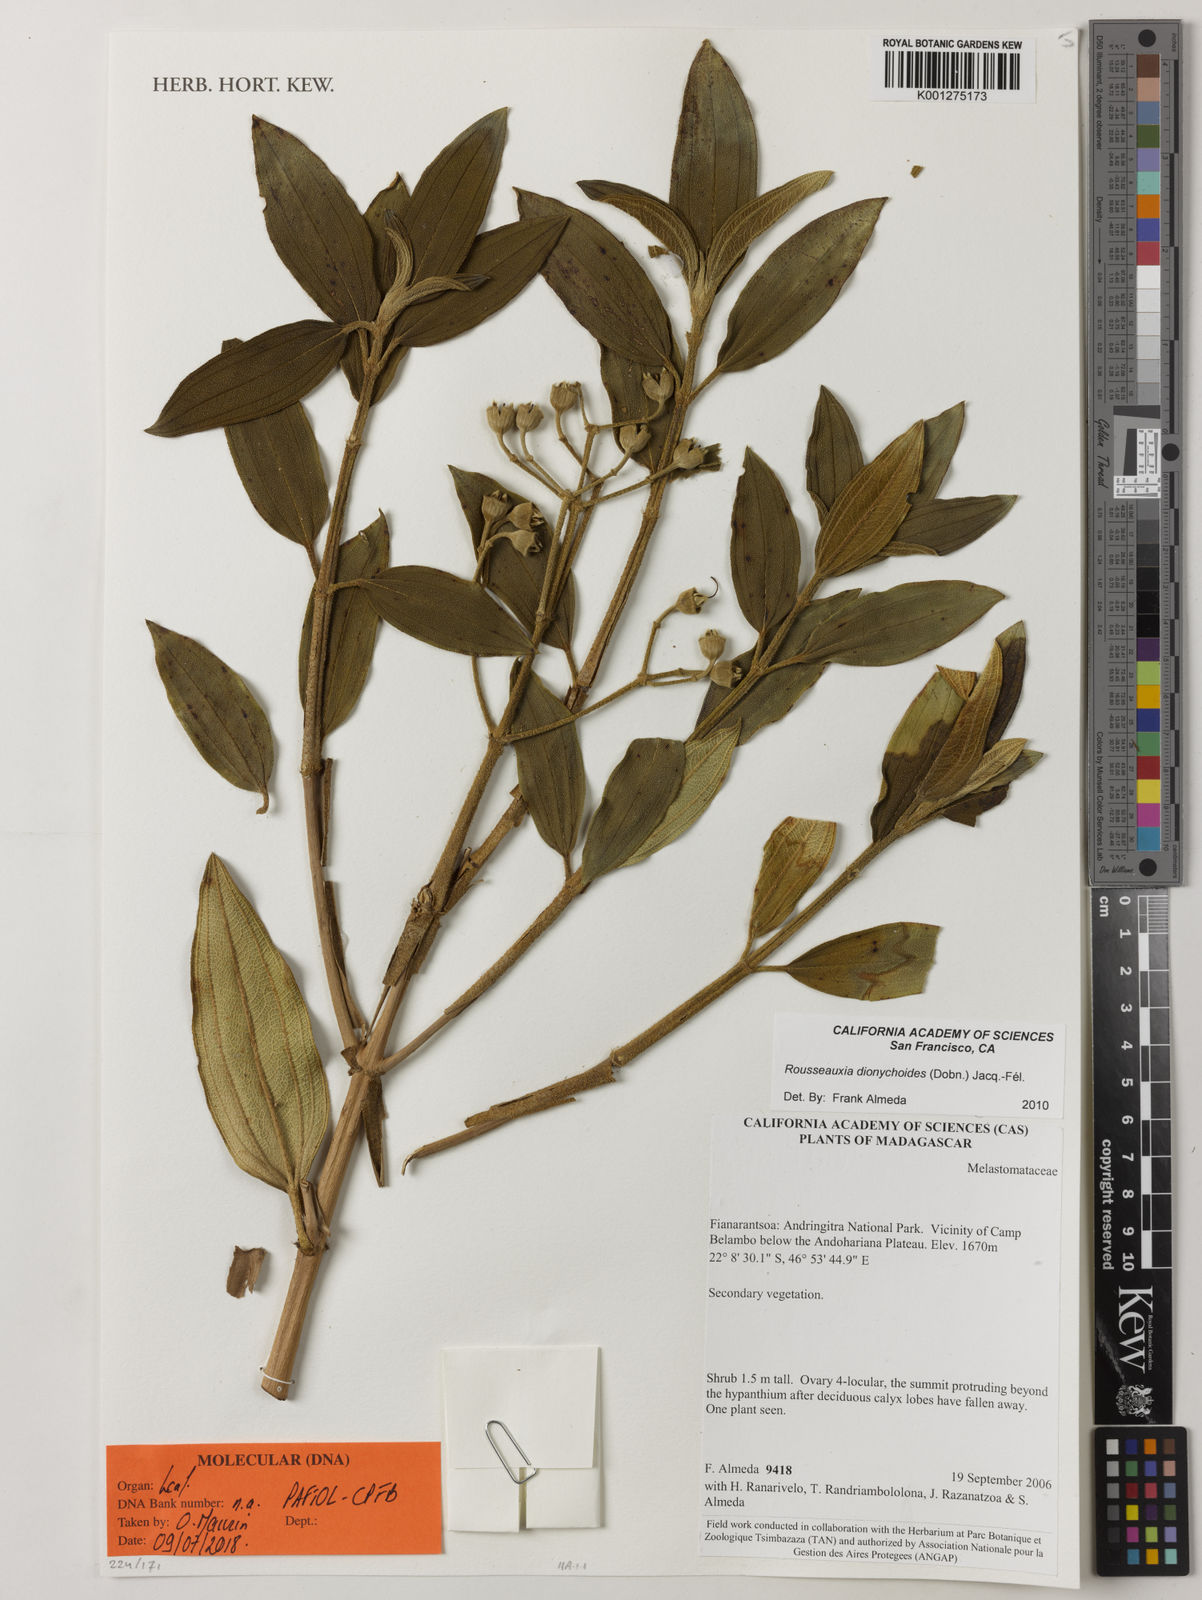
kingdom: Plantae
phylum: Tracheophyta
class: Magnoliopsida
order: Myrtales
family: Melastomataceae
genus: Rousseauxia
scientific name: Rousseauxia
